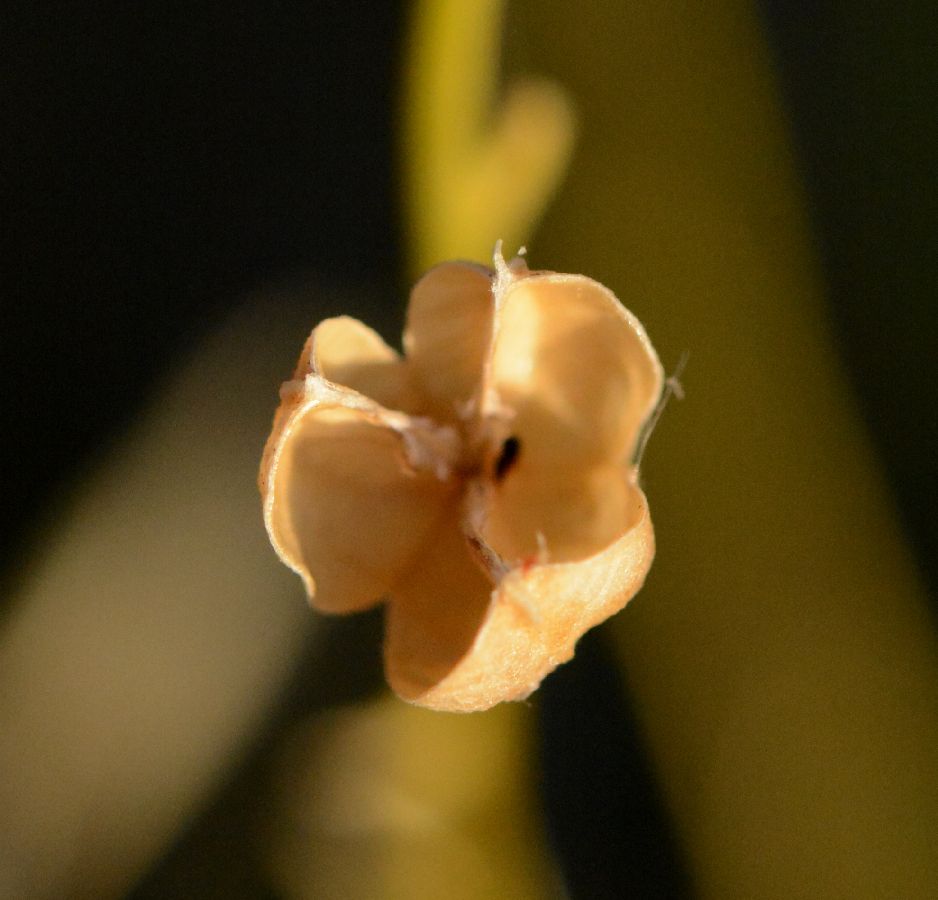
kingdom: Plantae
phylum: Tracheophyta
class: Liliopsida
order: Asparagales
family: Asparagaceae
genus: Anthericum
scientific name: Anthericum ramosum
